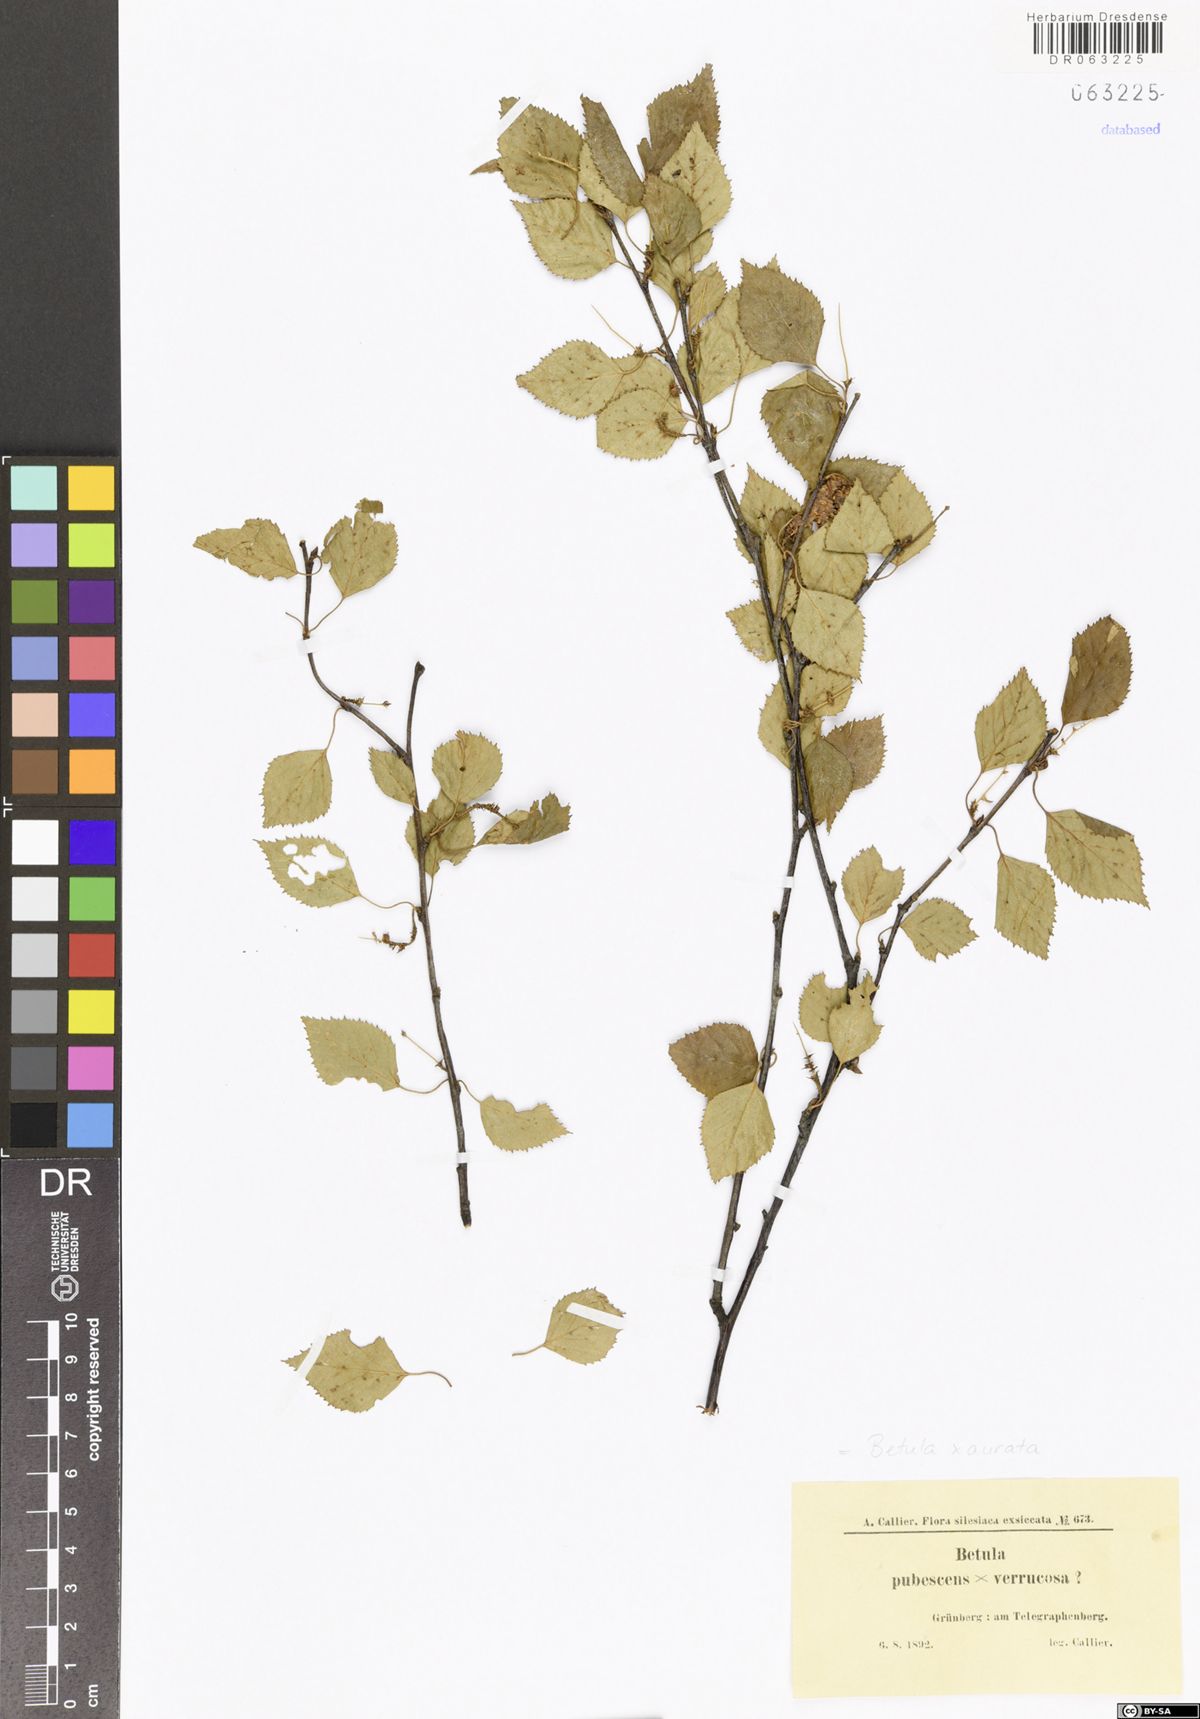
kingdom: Plantae
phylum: Tracheophyta
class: Magnoliopsida
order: Fagales
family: Betulaceae
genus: Betula
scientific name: Betula aurata
